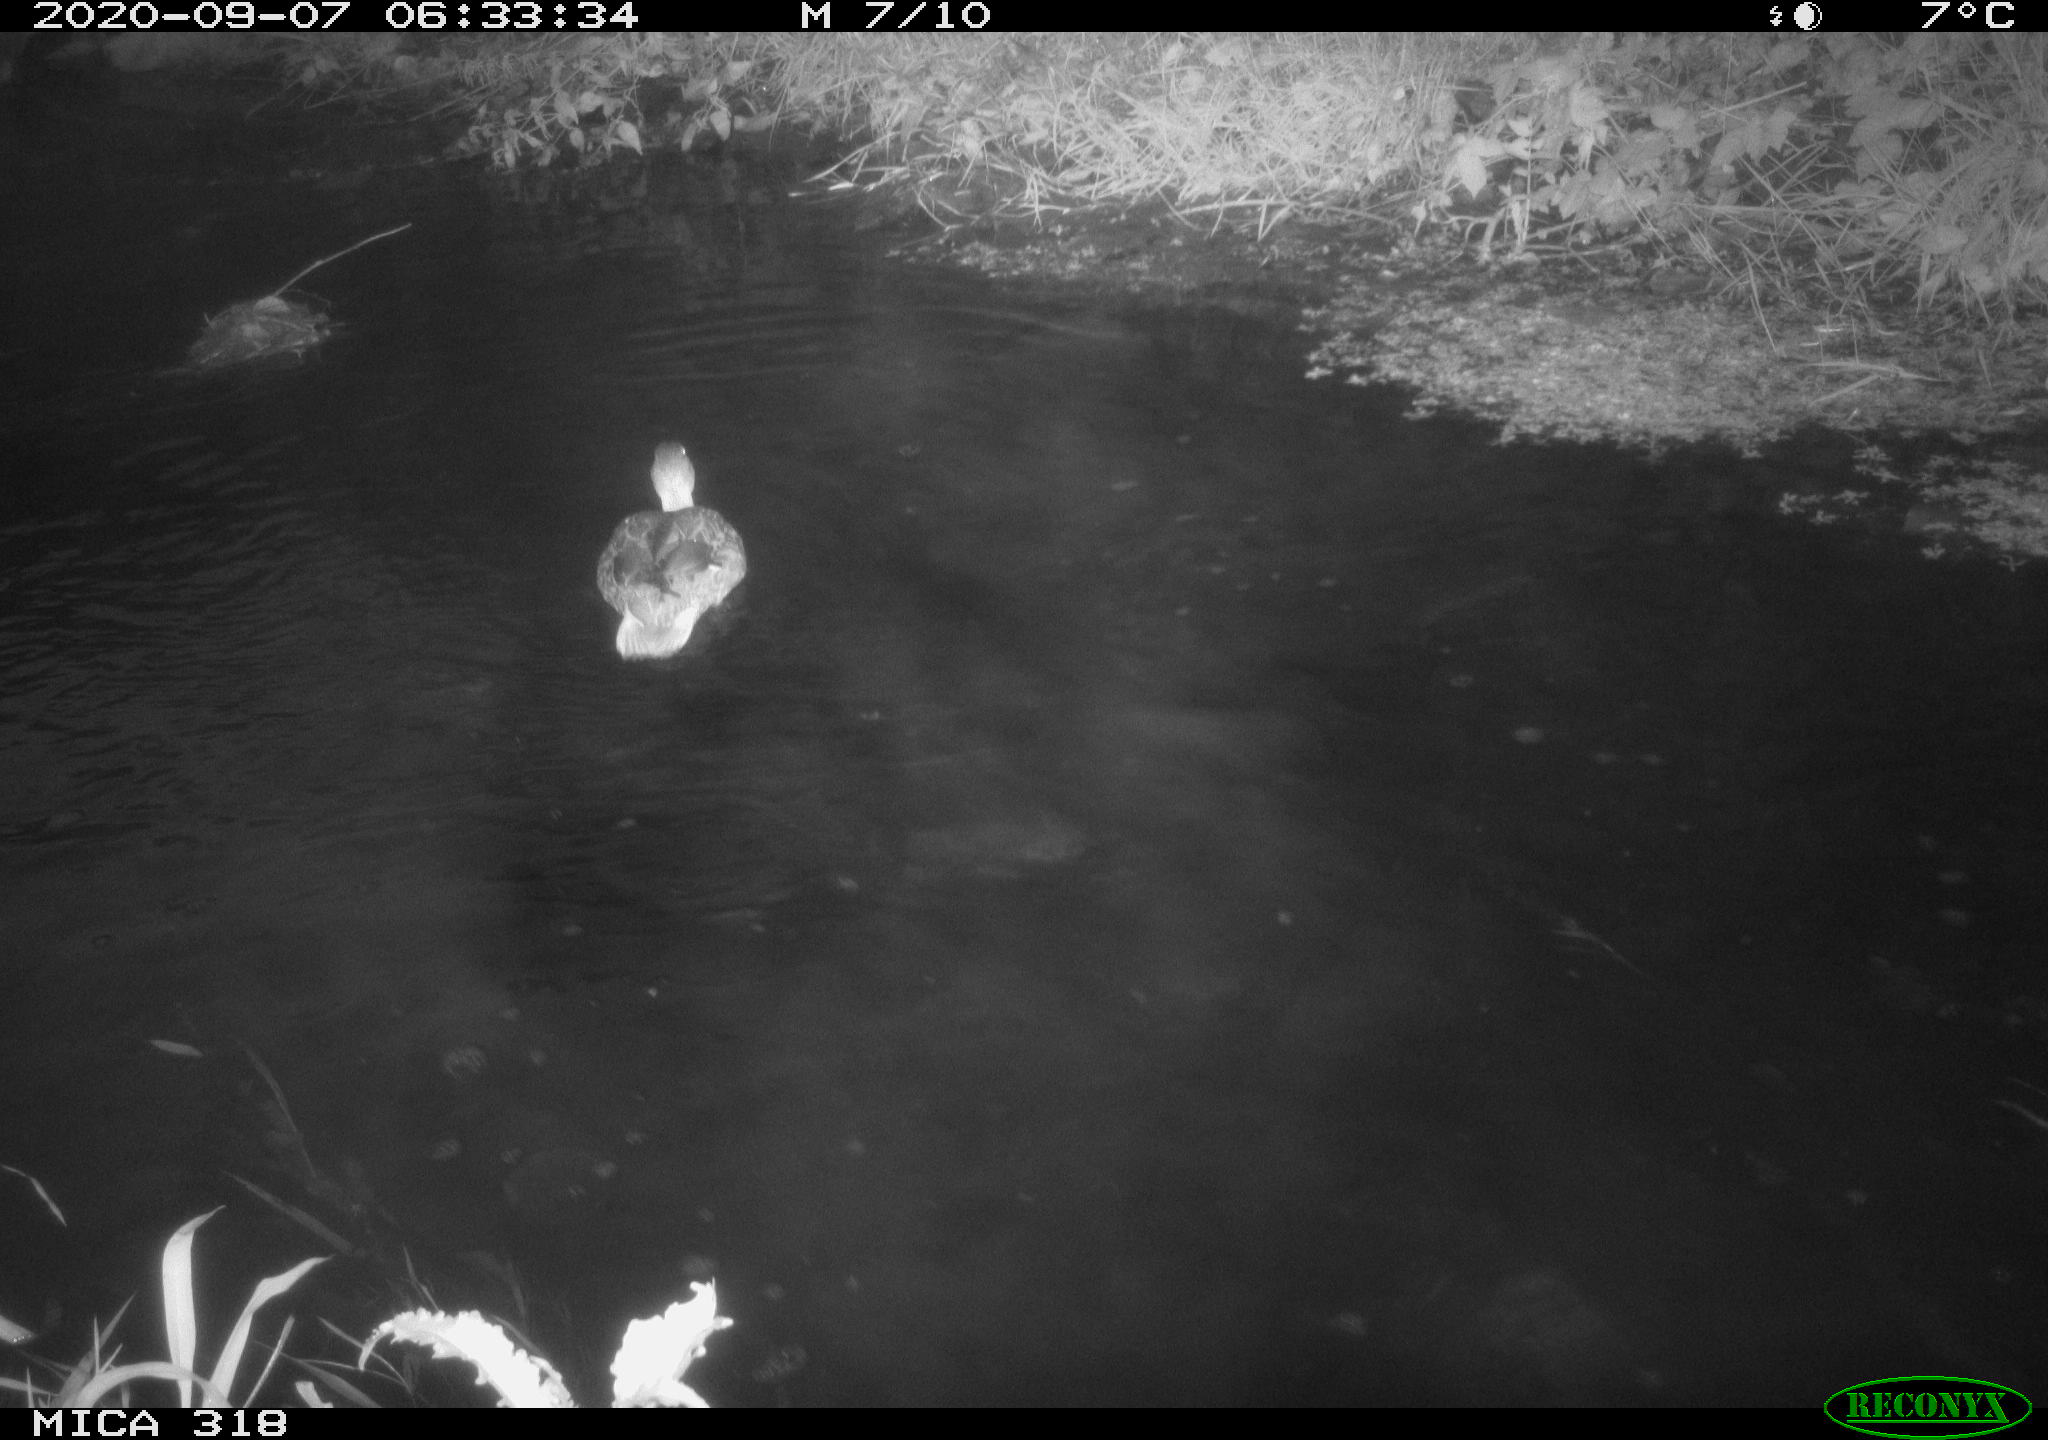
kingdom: Animalia
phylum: Chordata
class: Aves
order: Anseriformes
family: Anatidae
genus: Anas
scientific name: Anas platyrhynchos
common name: Mallard
